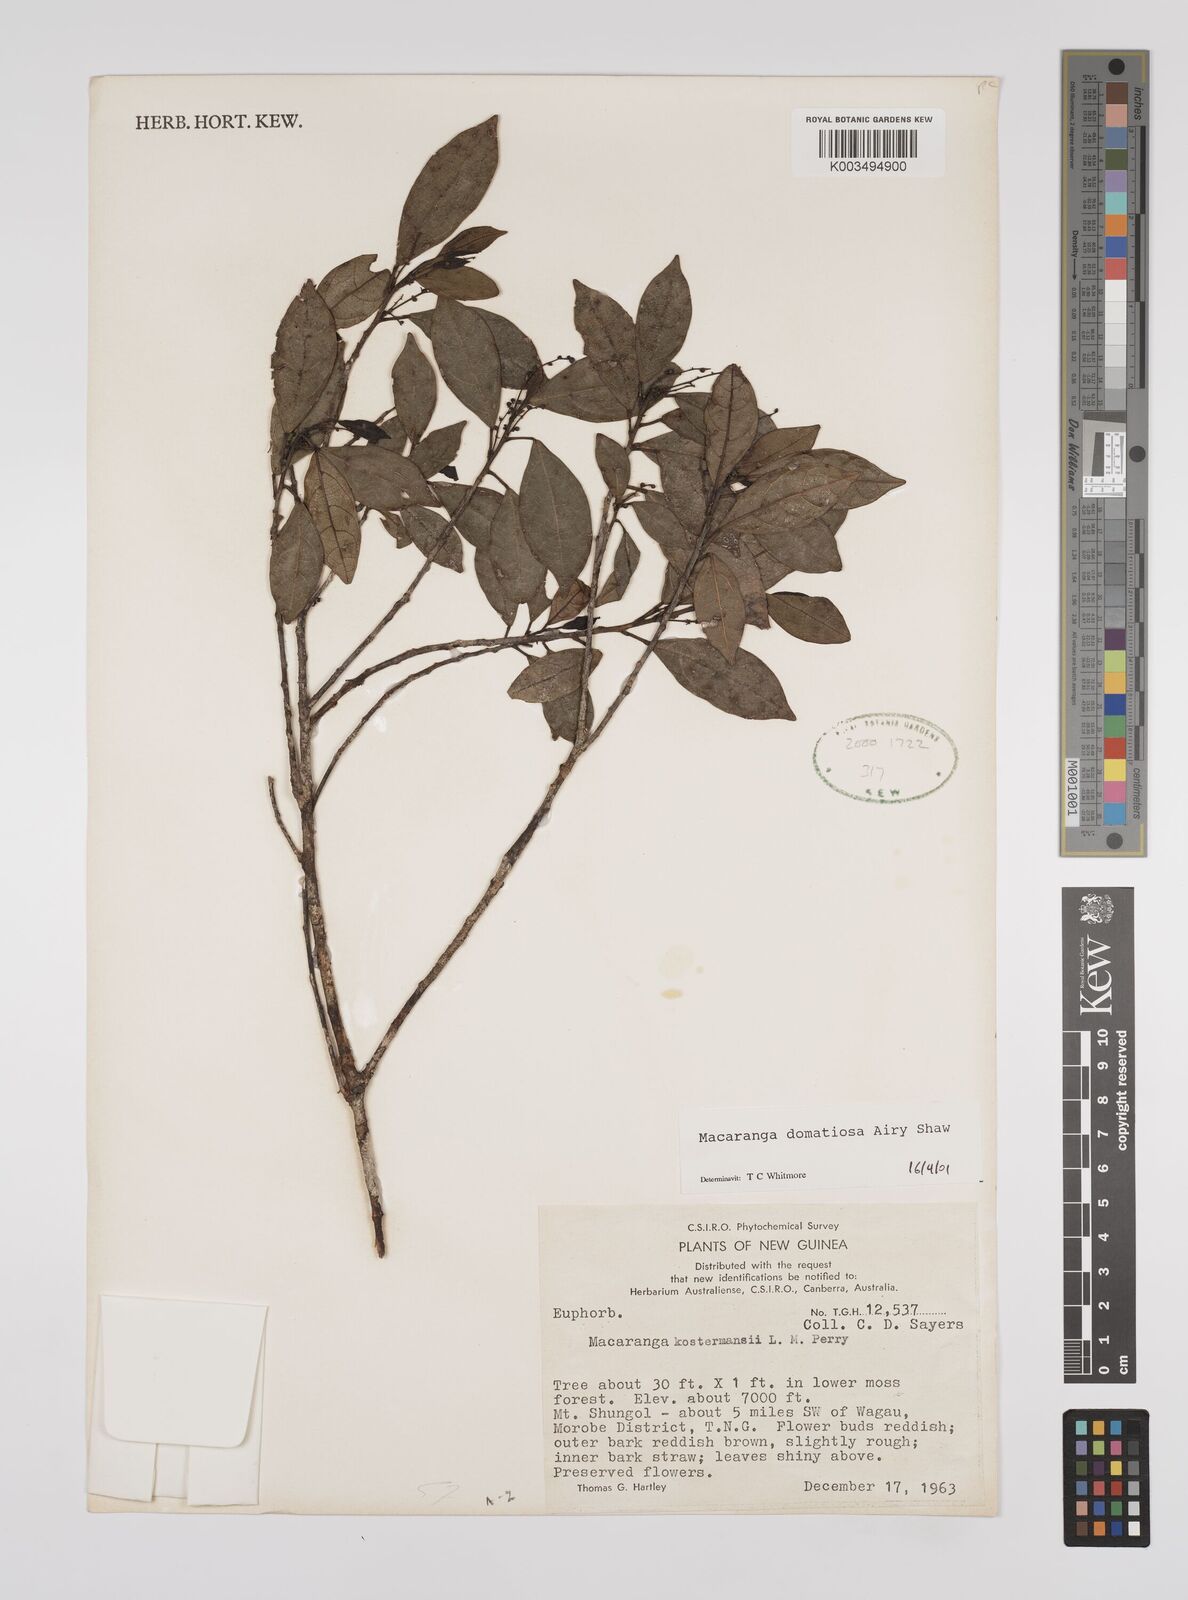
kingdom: Plantae
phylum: Tracheophyta
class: Magnoliopsida
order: Malpighiales
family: Euphorbiaceae
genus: Macaranga
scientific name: Macaranga domatiosa
